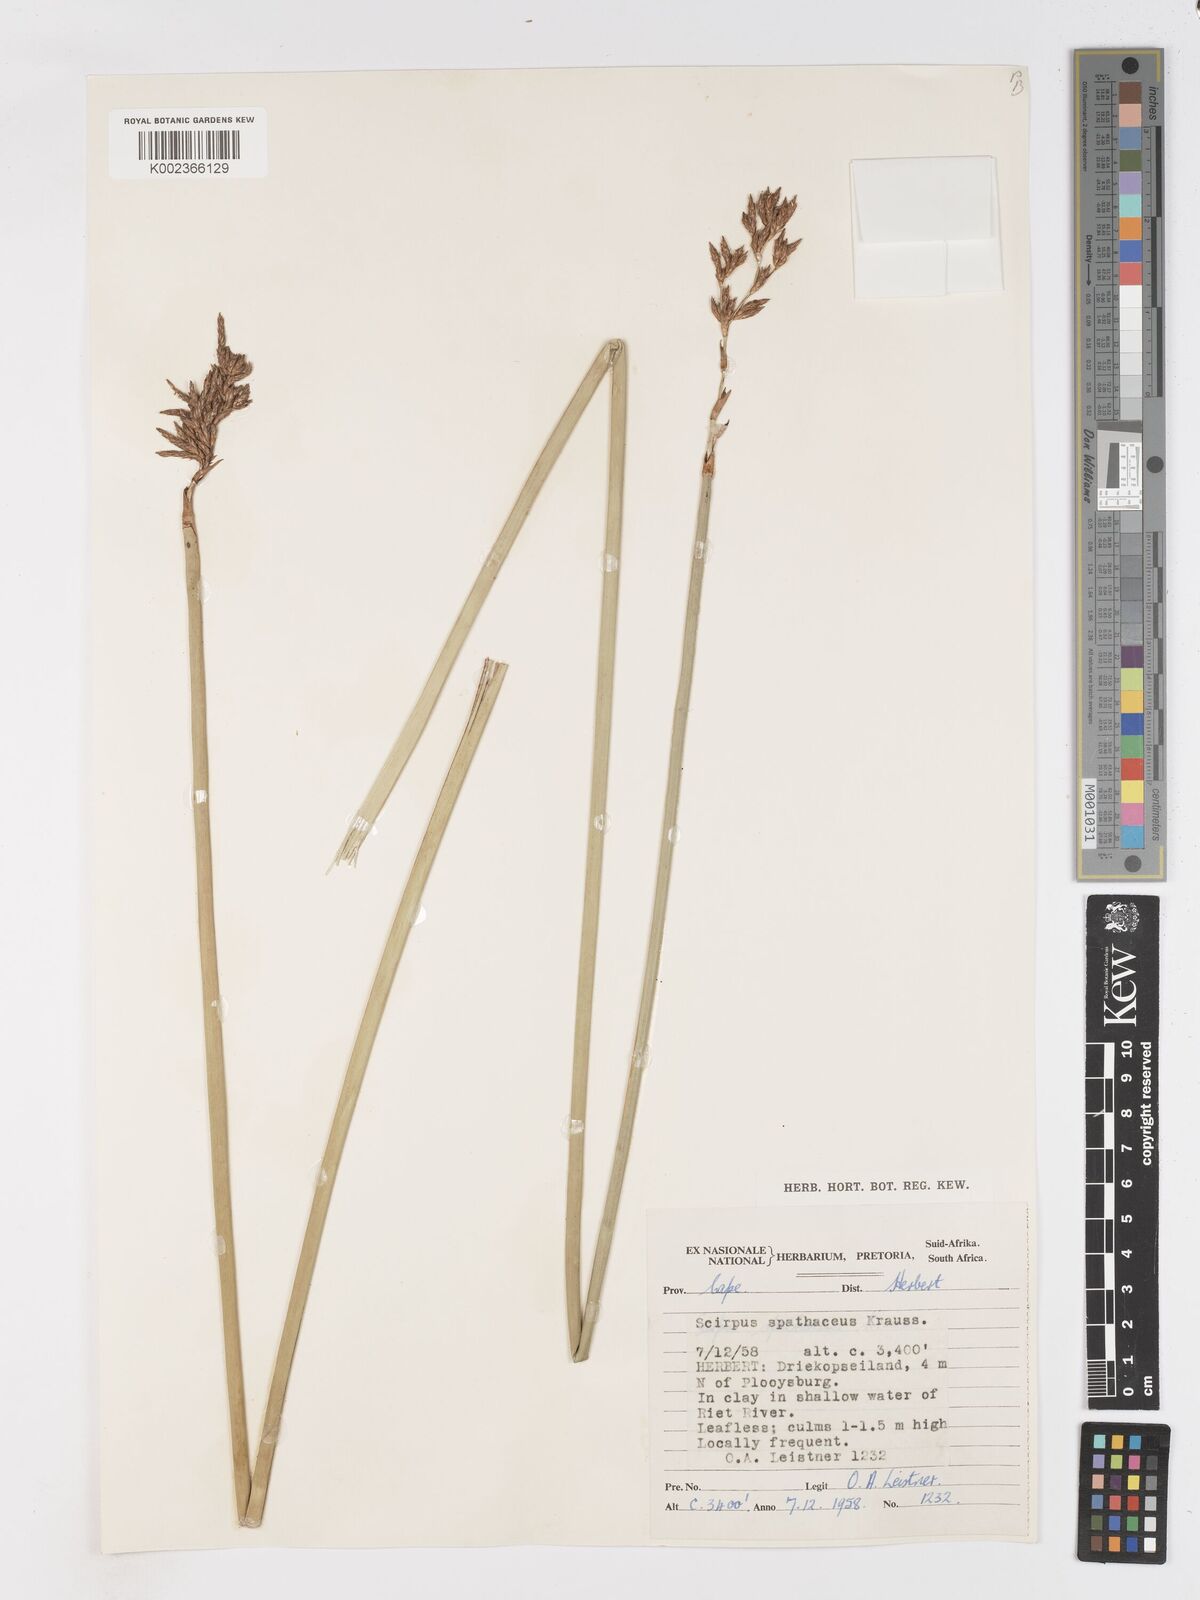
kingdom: Plantae
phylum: Tracheophyta
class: Liliopsida
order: Poales
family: Cyperaceae
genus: Pseudoschoenus
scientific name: Pseudoschoenus inanis
